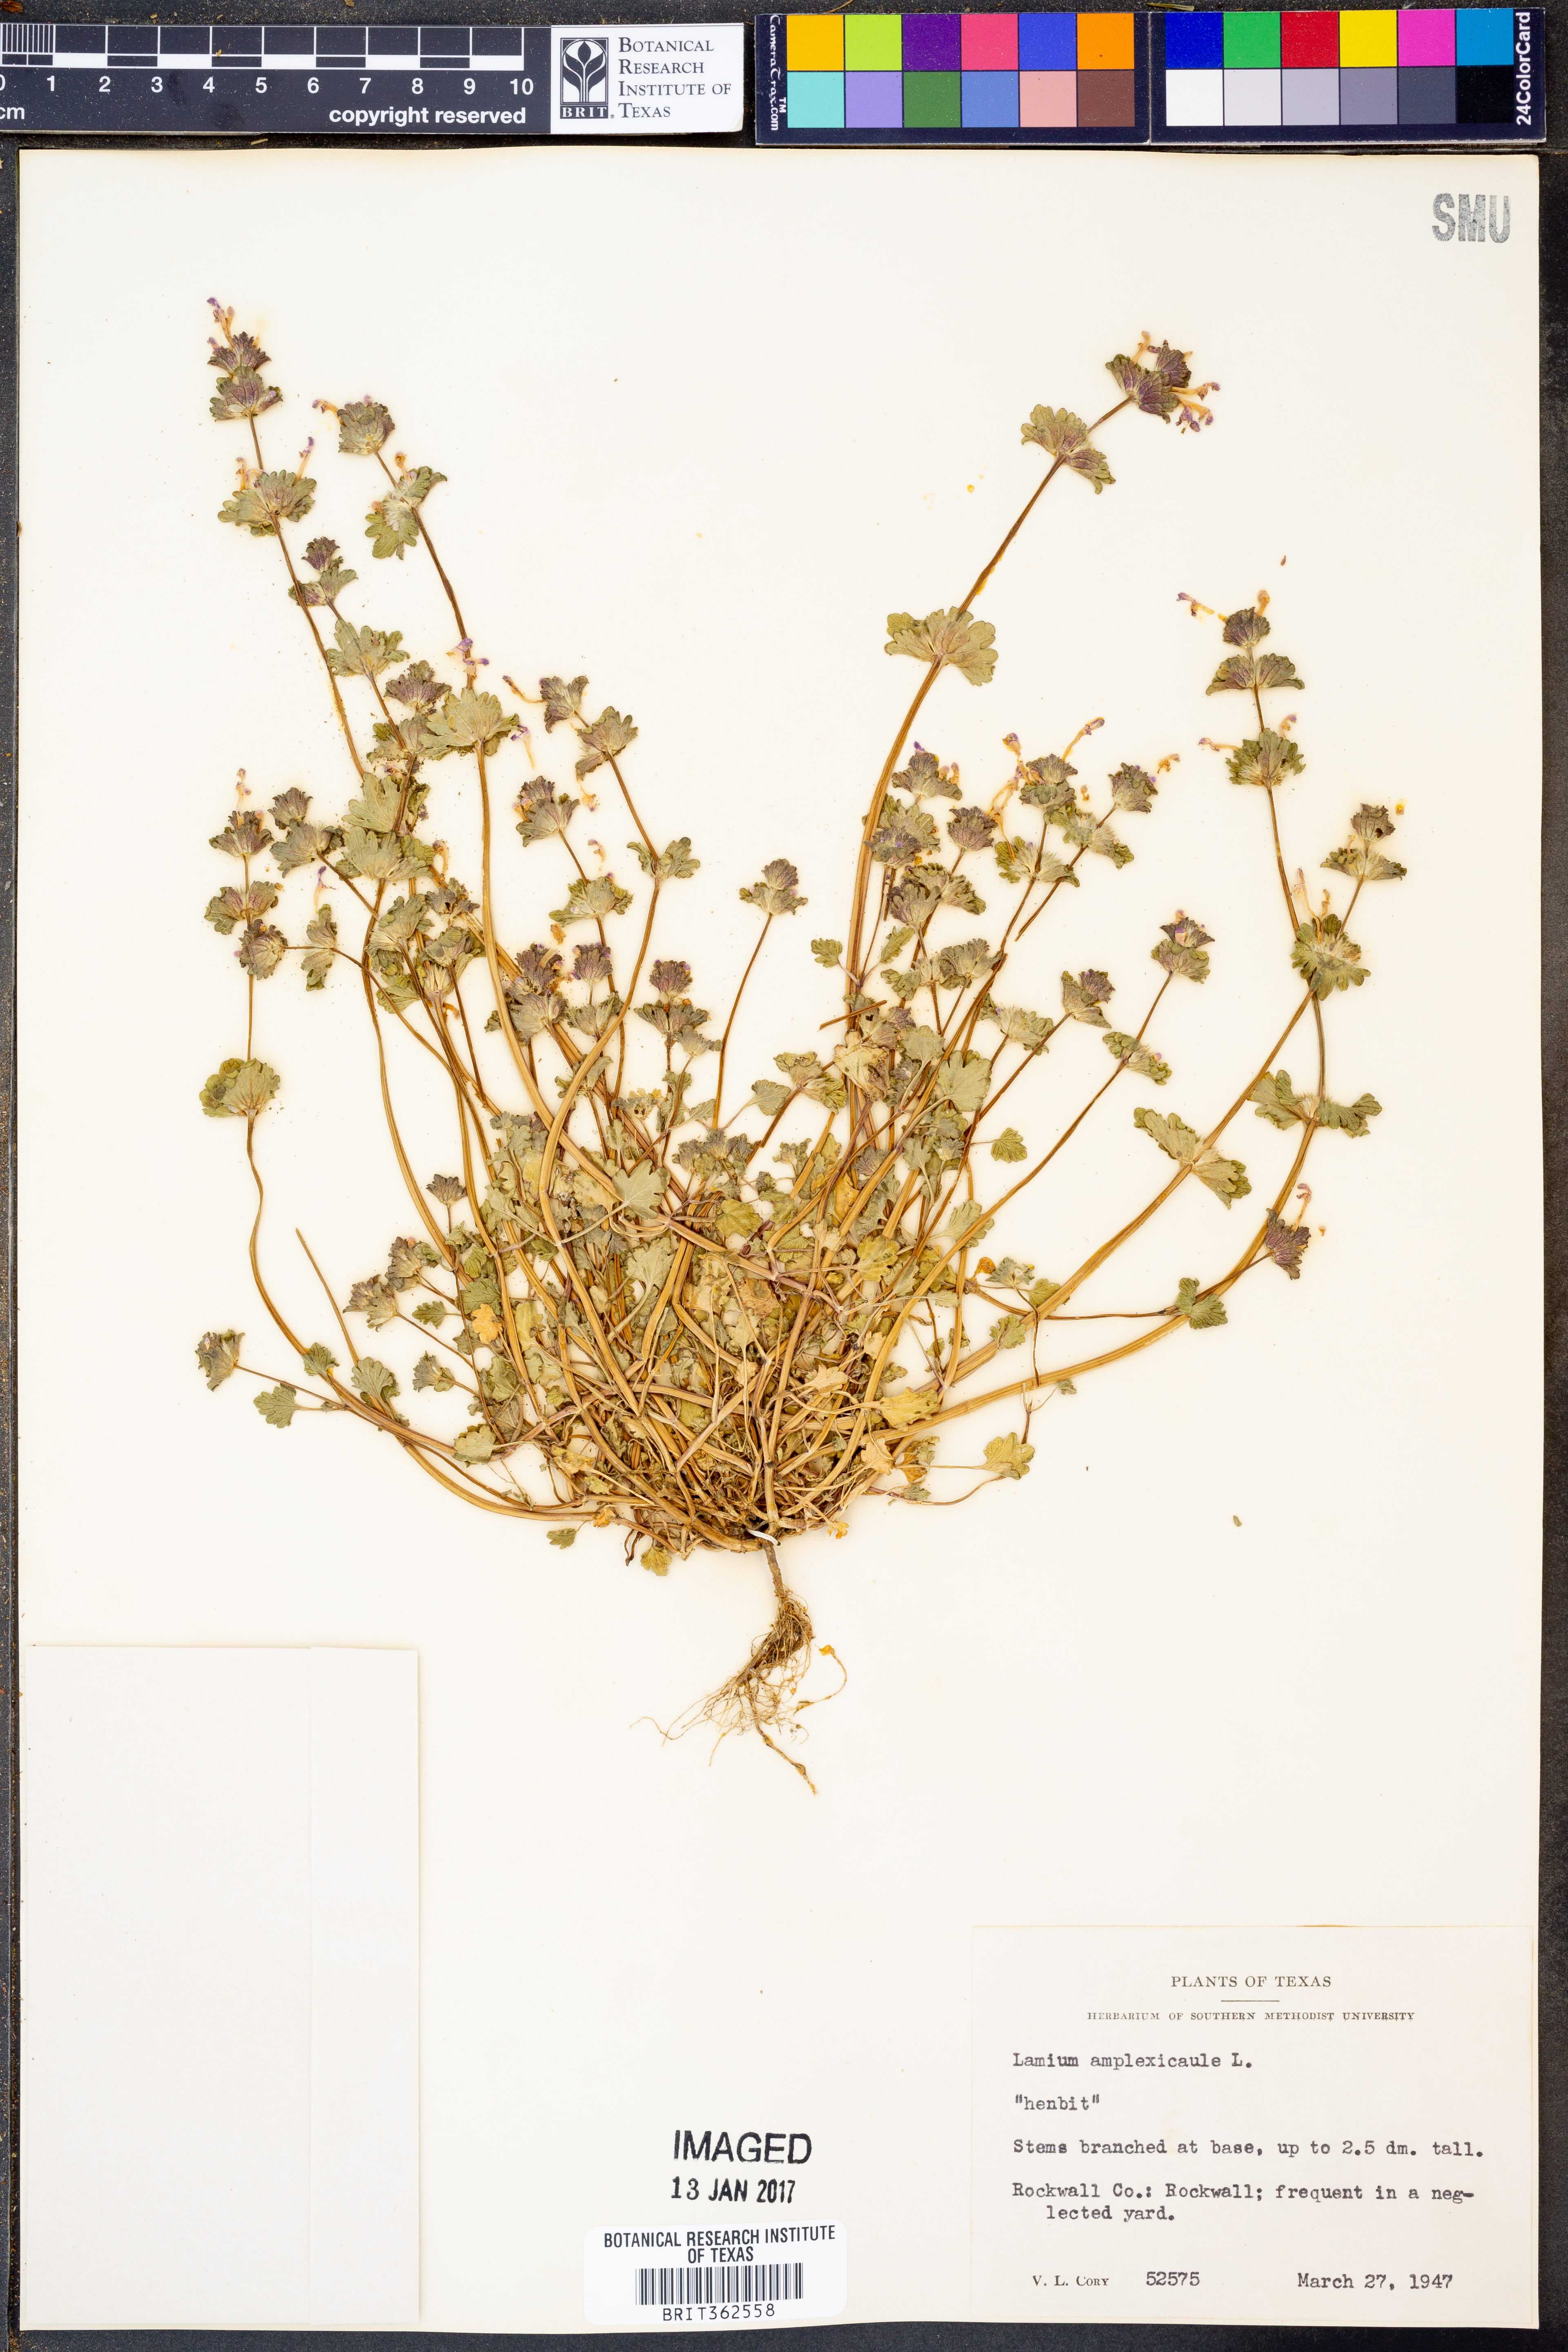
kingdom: Plantae
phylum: Tracheophyta
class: Magnoliopsida
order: Lamiales
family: Lamiaceae
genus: Lamium
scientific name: Lamium amplexicaule
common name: Henbit dead-nettle
